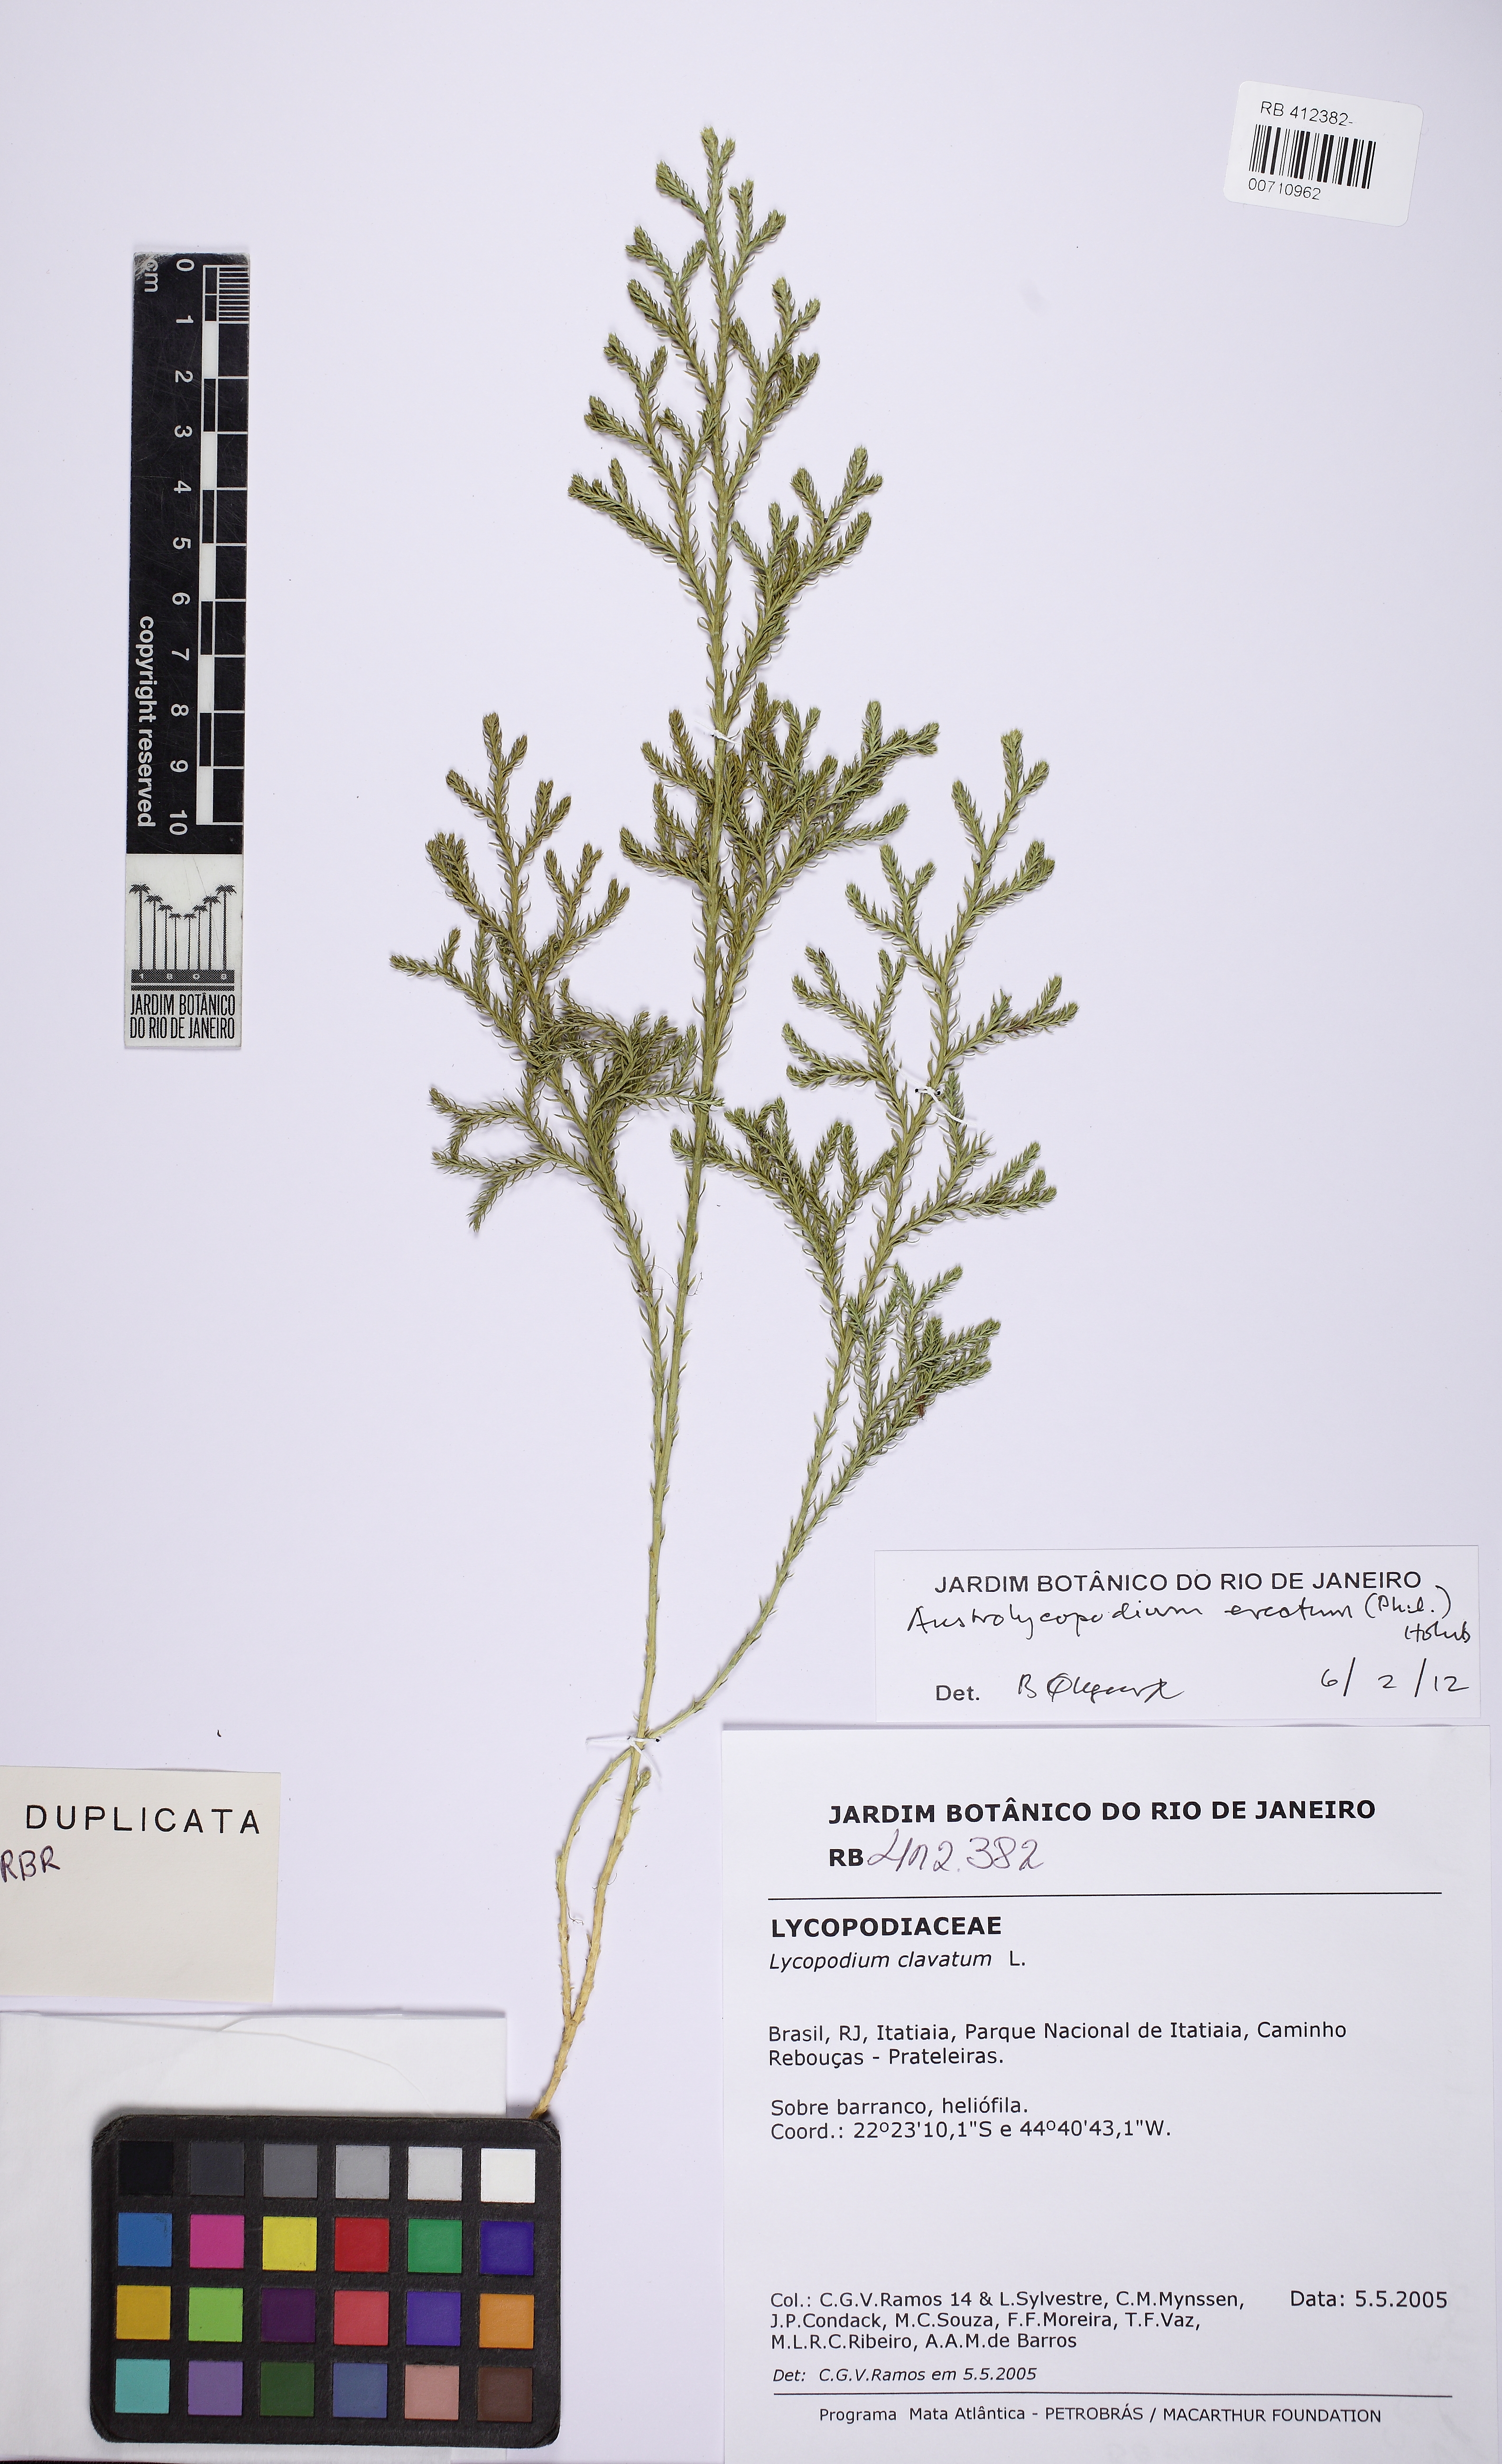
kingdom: Plantae
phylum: Tracheophyta
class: Lycopodiopsida
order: Lycopodiales
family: Lycopodiaceae
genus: Austrolycopodium
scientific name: Austrolycopodium erectum
